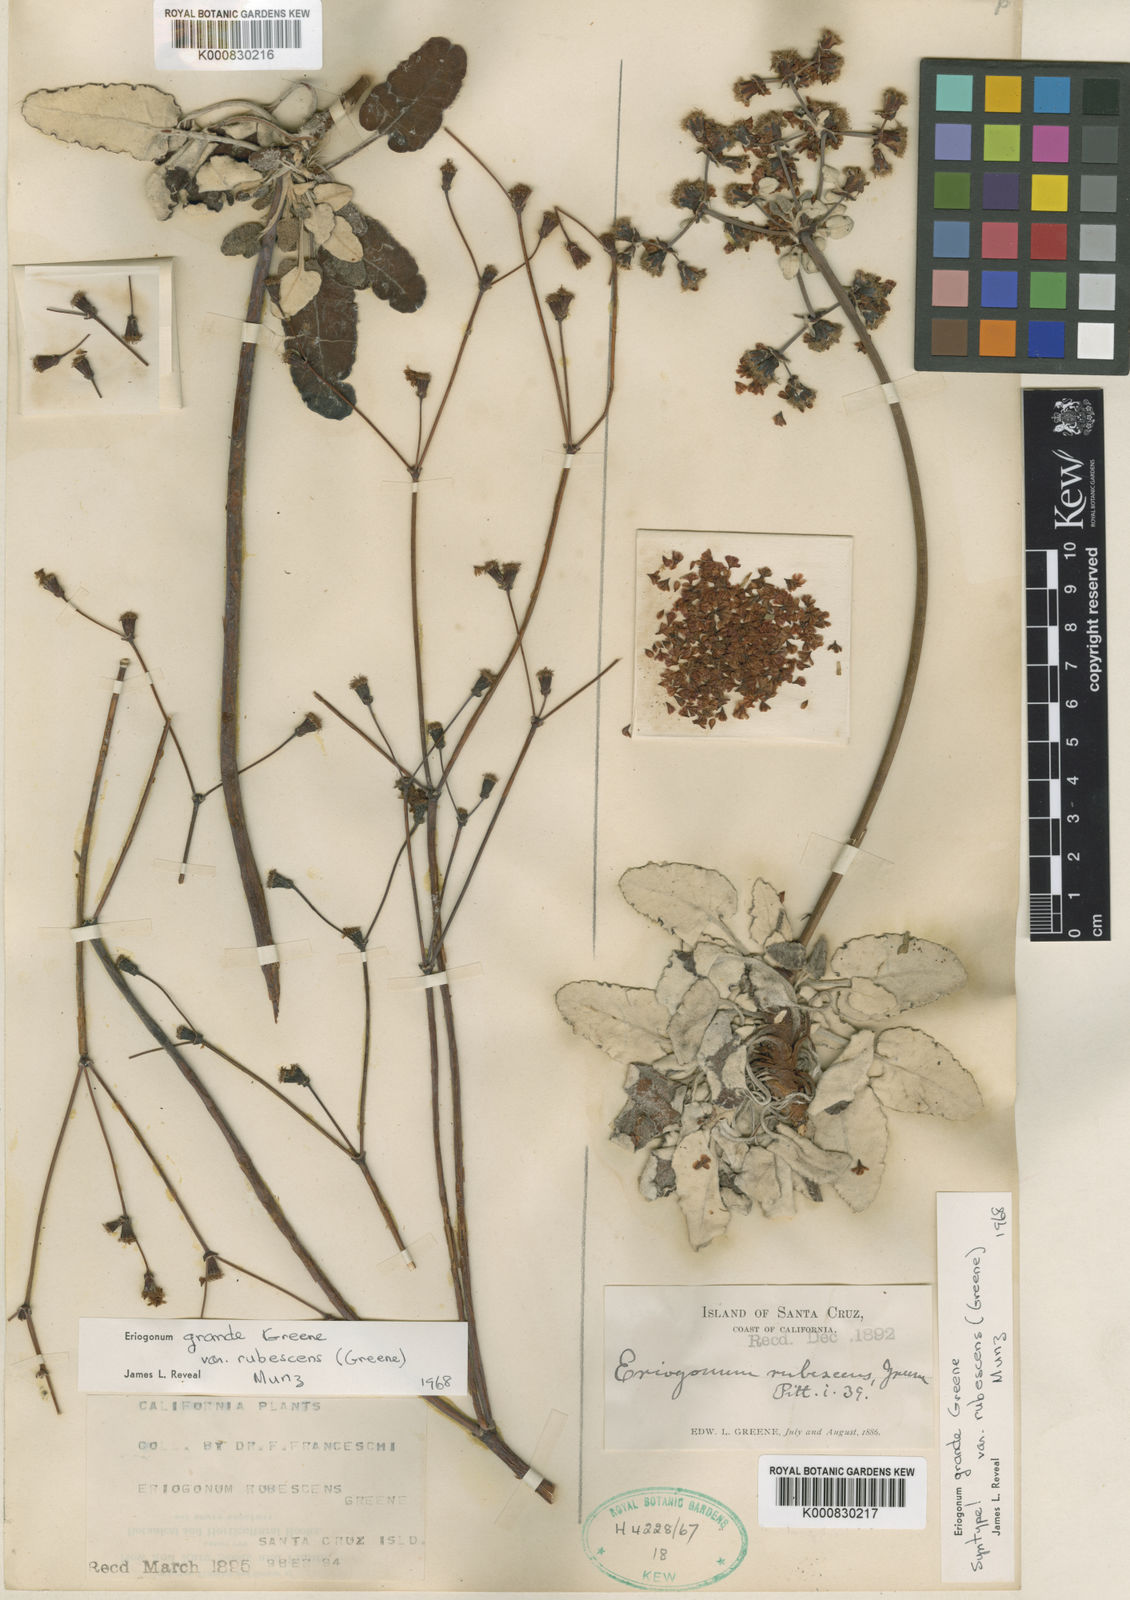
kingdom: Plantae
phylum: Tracheophyta
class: Magnoliopsida
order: Caryophyllales
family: Polygonaceae
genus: Eriogonum
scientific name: Eriogonum grande
